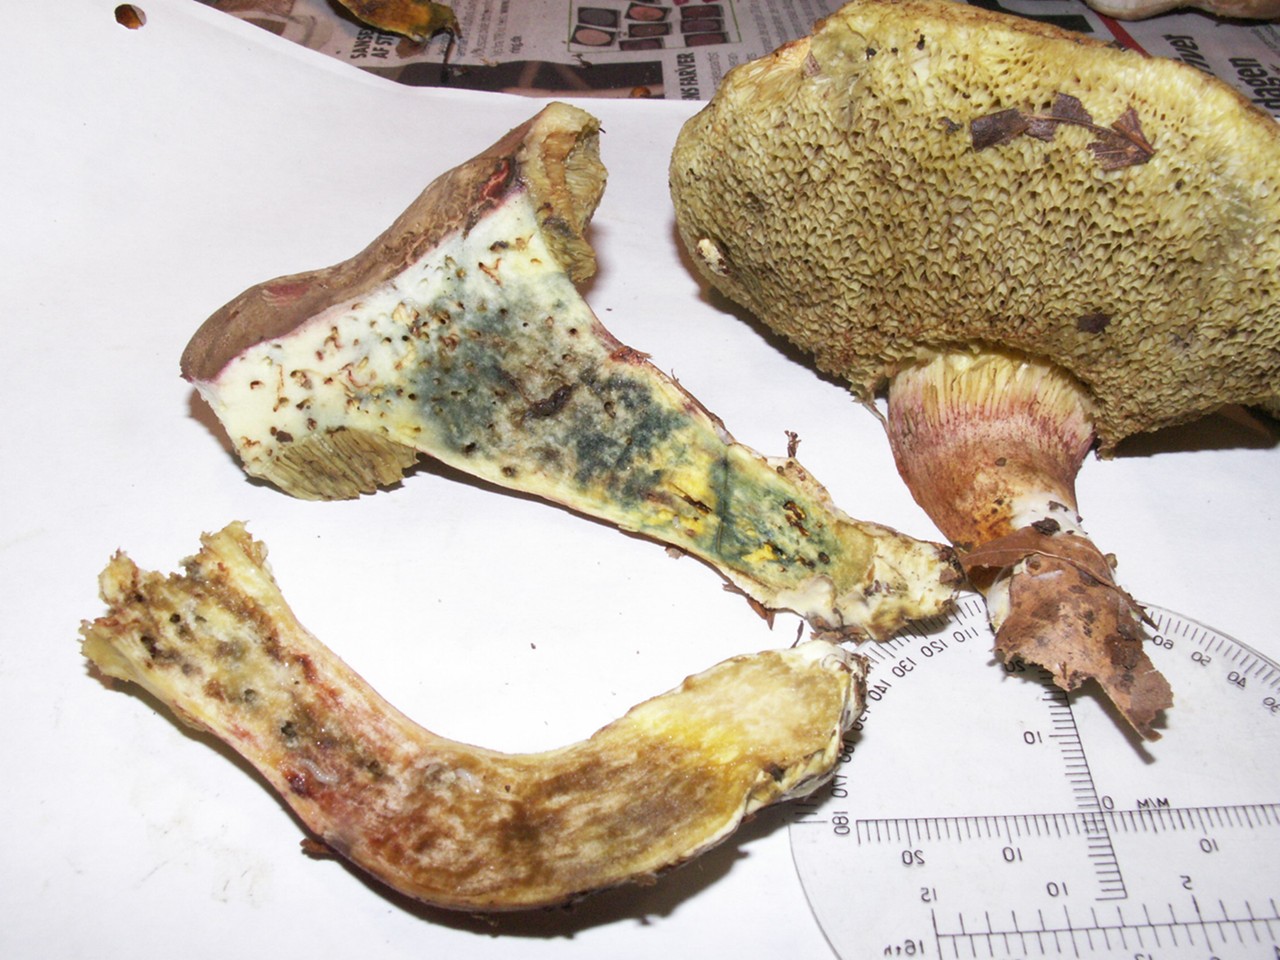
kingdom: Fungi
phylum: Basidiomycota
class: Agaricomycetes
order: Boletales
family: Boletaceae
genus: Xerocomellus
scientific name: Xerocomellus porosporus
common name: hvidsprukken rørhat
